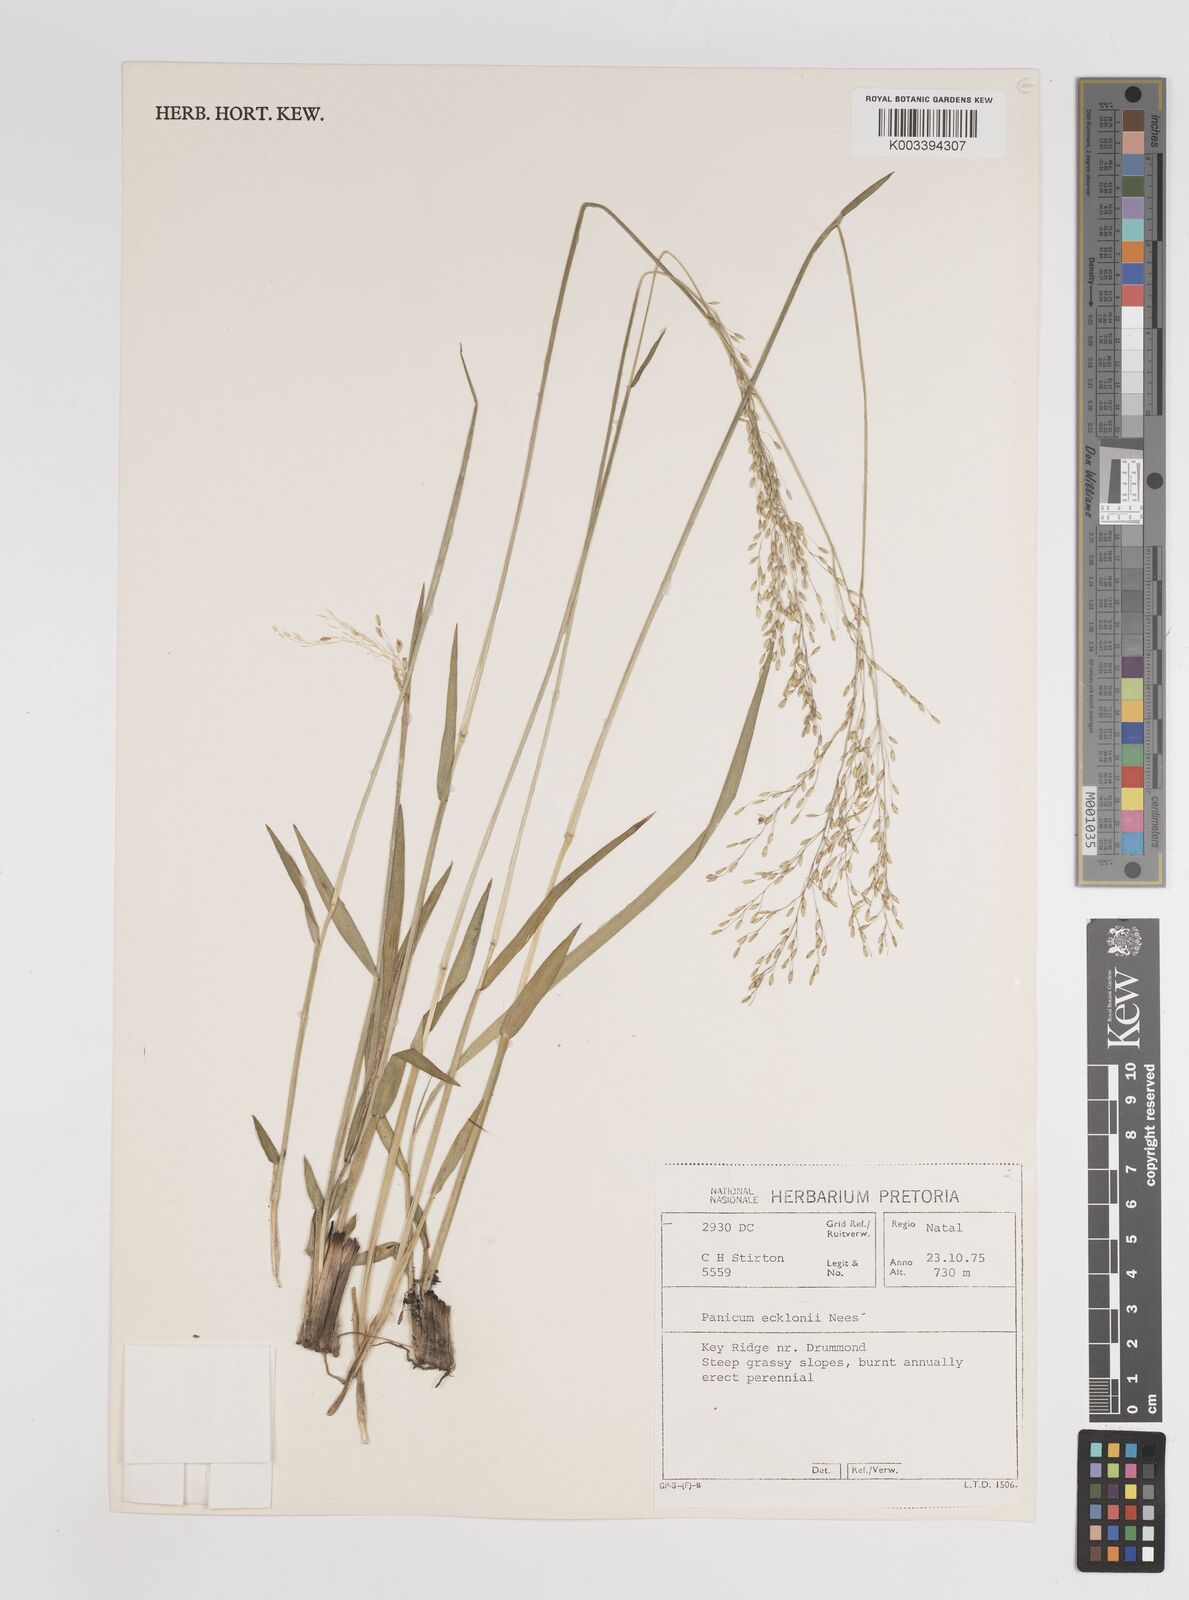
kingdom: Plantae
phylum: Tracheophyta
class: Liliopsida
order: Poales
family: Poaceae
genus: Adenochloa
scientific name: Adenochloa ecklonii
